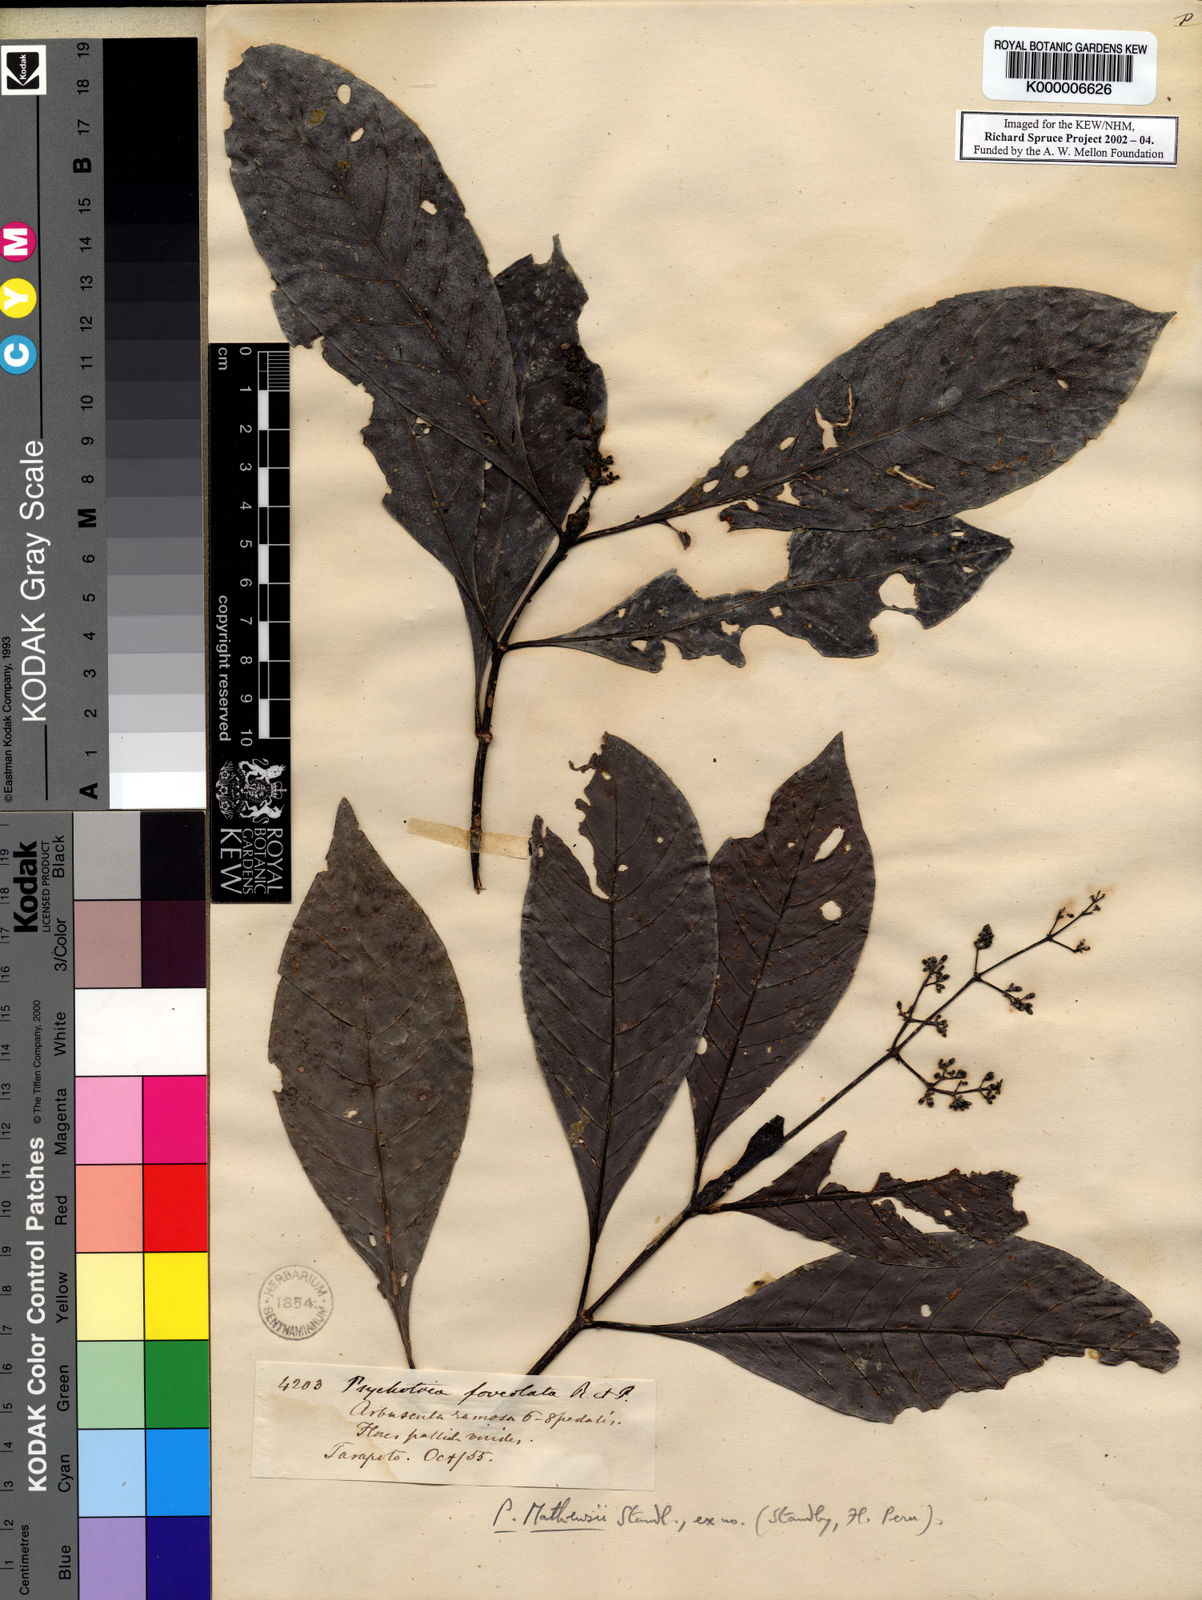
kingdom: Plantae
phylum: Tracheophyta
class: Magnoliopsida
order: Gentianales
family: Rubiaceae
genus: Psychotria
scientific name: Psychotria guianensis
